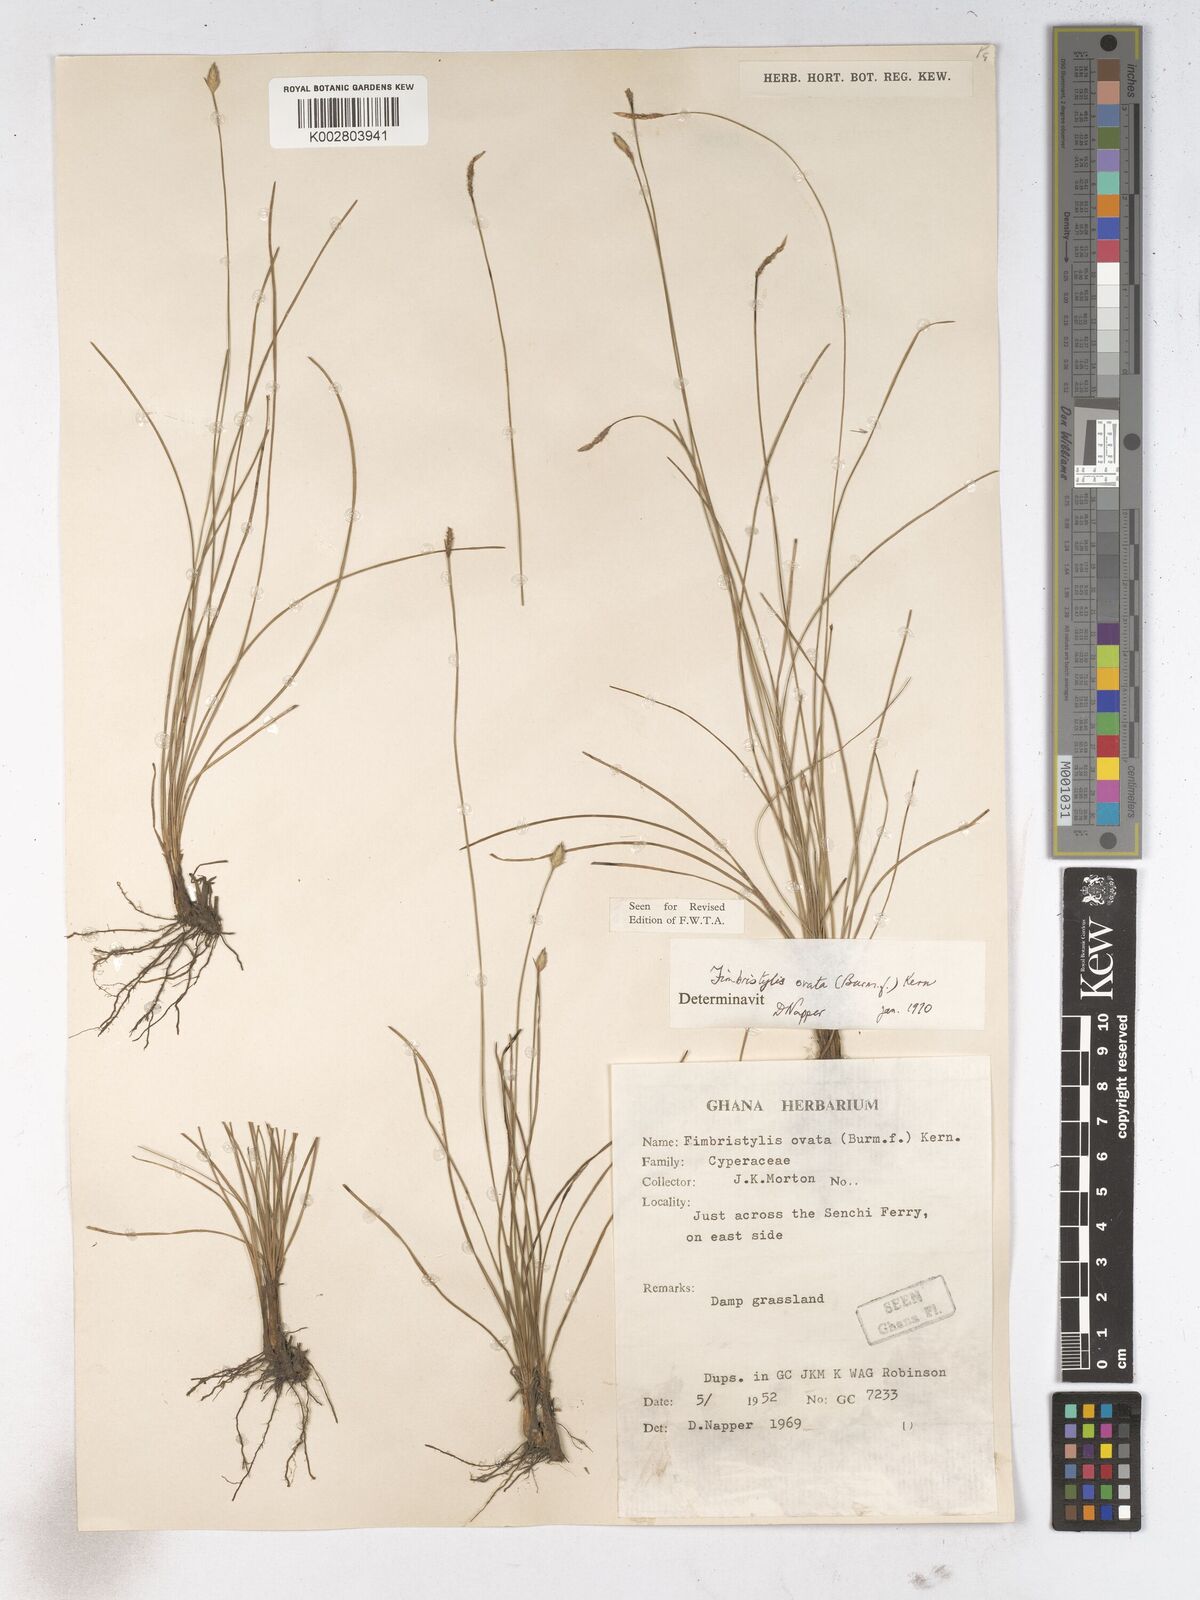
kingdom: Plantae
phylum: Tracheophyta
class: Liliopsida
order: Poales
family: Cyperaceae
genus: Abildgaardia
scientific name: Abildgaardia ovata
